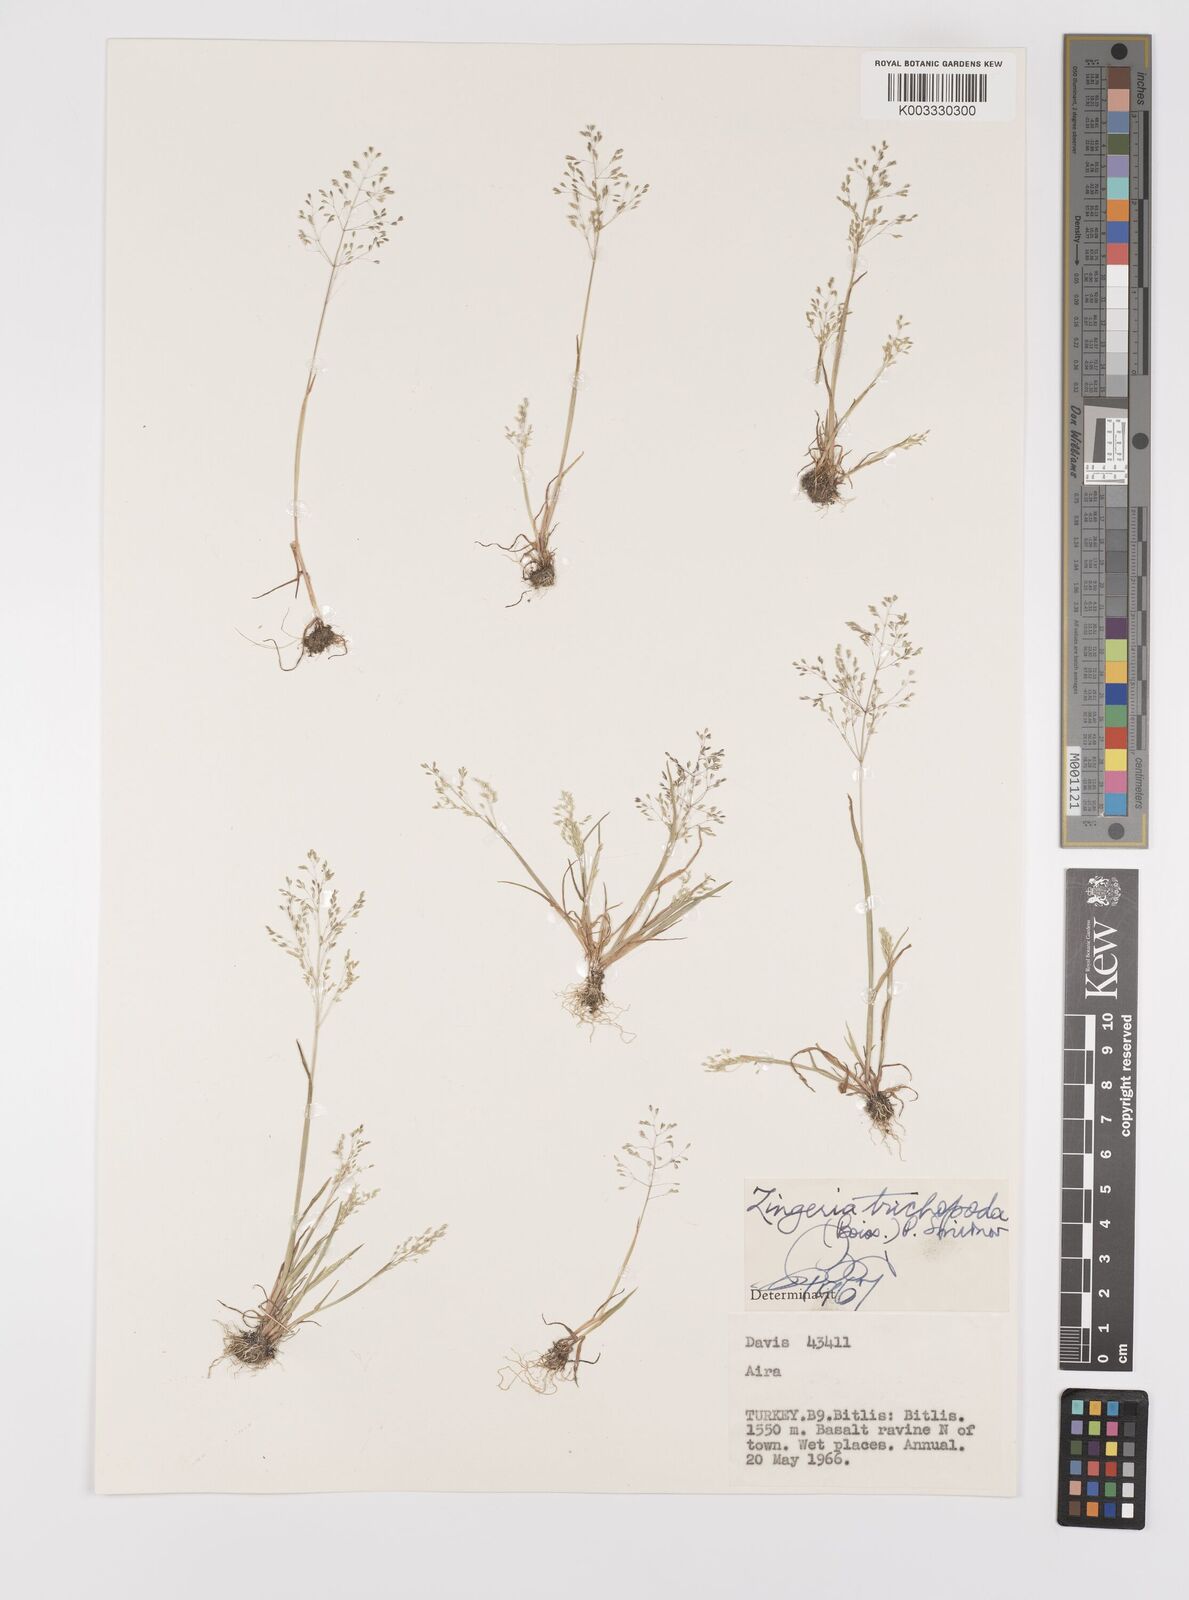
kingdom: Plantae
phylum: Tracheophyta
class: Liliopsida
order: Poales
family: Poaceae
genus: Colpodium
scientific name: Colpodium trichopodum
